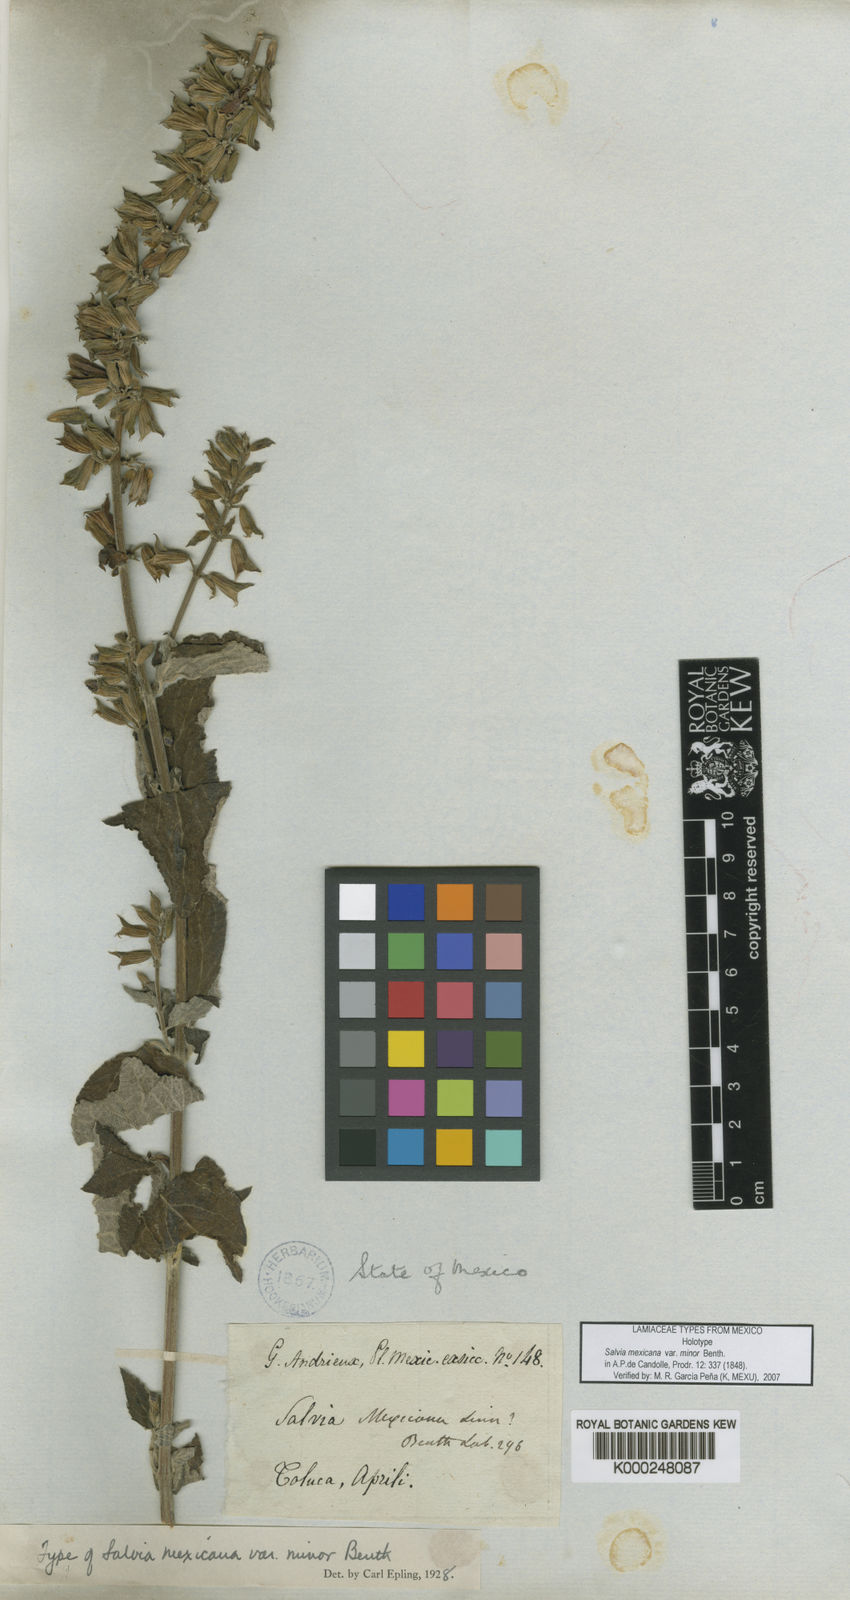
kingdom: Plantae
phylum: Tracheophyta
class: Magnoliopsida
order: Lamiales
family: Lamiaceae
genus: Salvia
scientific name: Salvia mexicana
